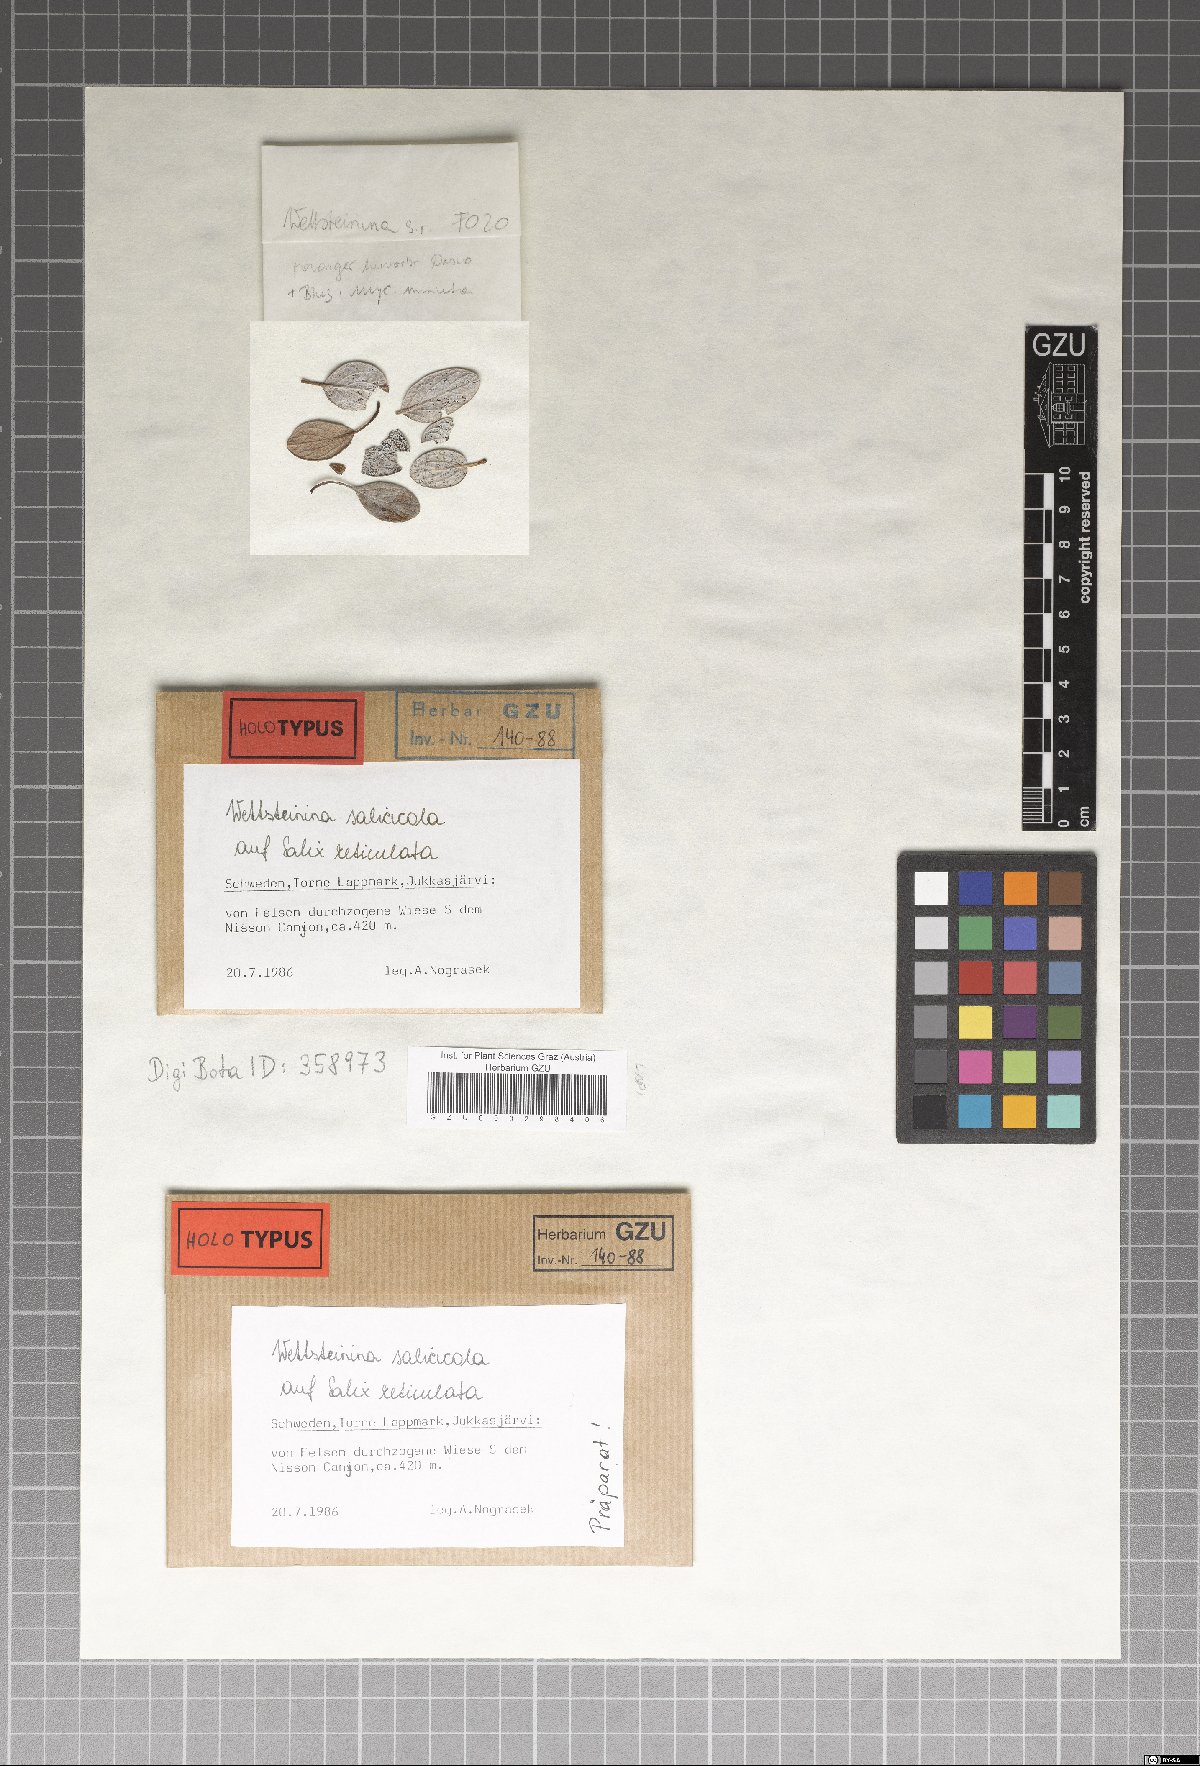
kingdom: Fungi
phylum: Ascomycota
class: Dothideomycetes
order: Pleosporales
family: Pleosporaceae
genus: Wettsteinina
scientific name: Wettsteinina salicicola
